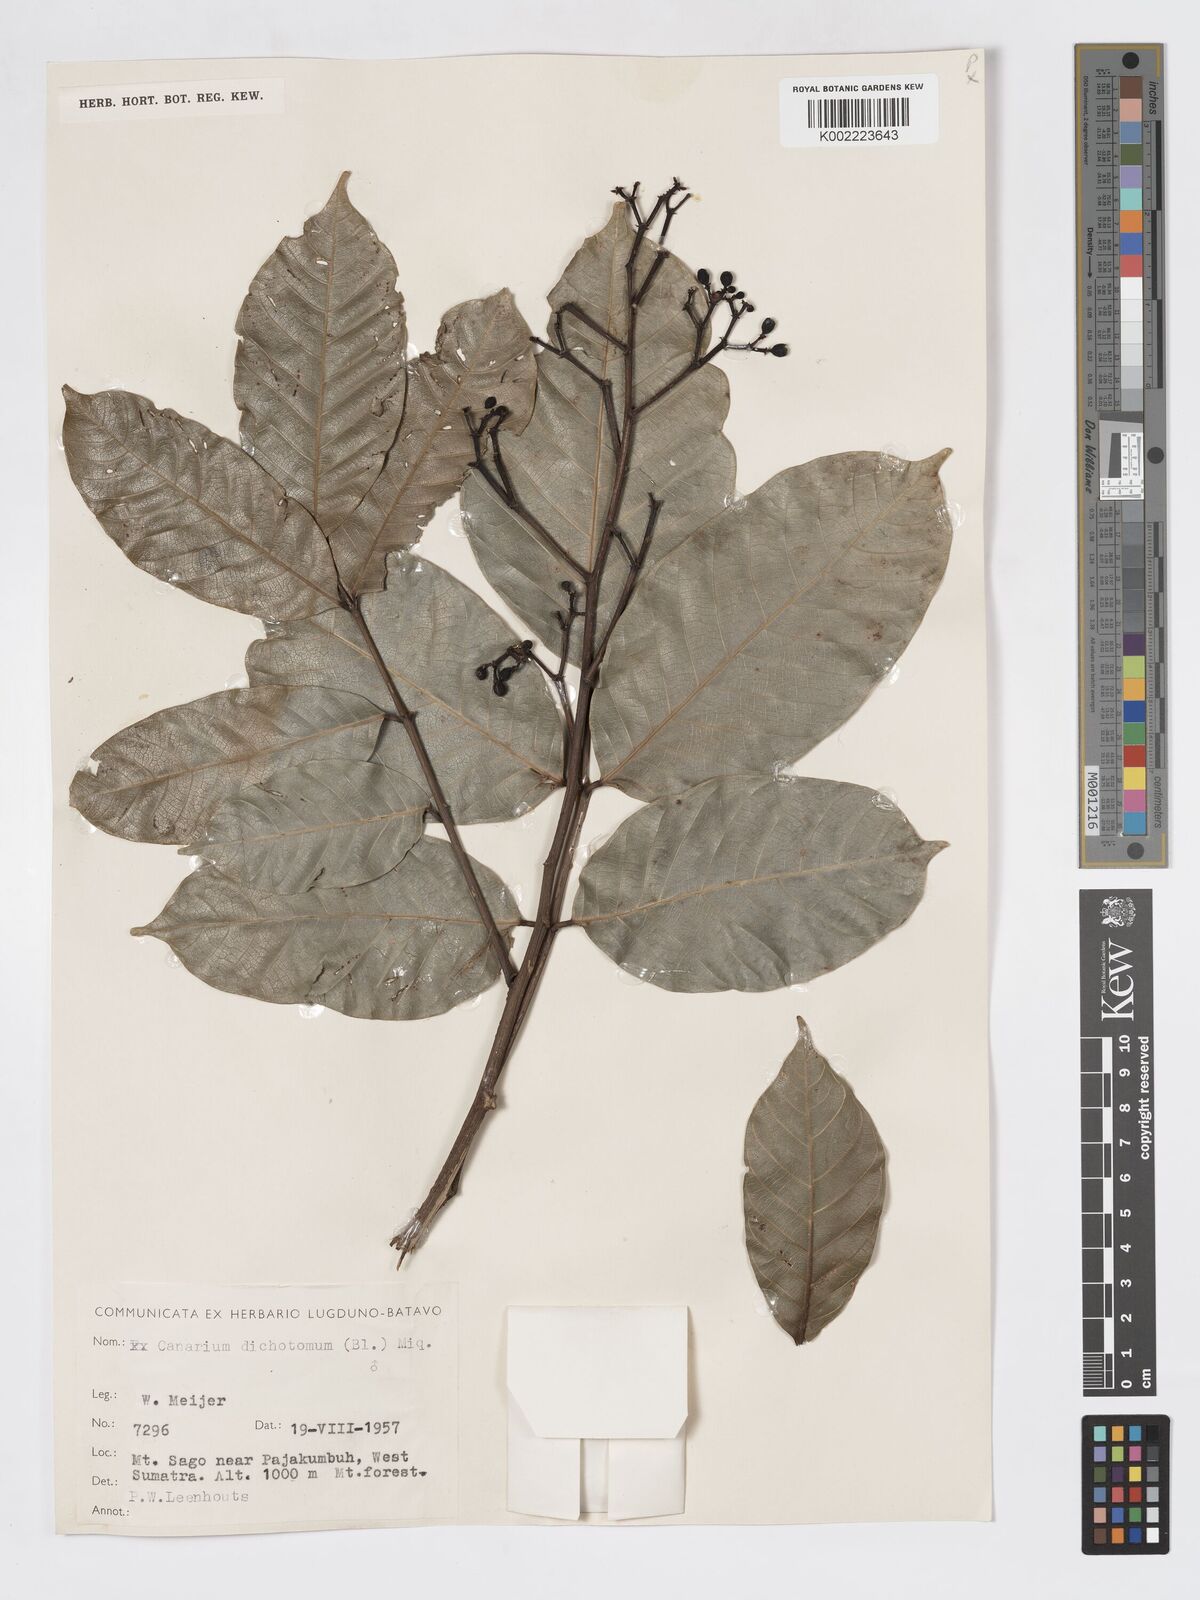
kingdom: Plantae
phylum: Tracheophyta
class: Magnoliopsida
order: Sapindales
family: Burseraceae
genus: Canarium
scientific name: Canarium dichotomum
